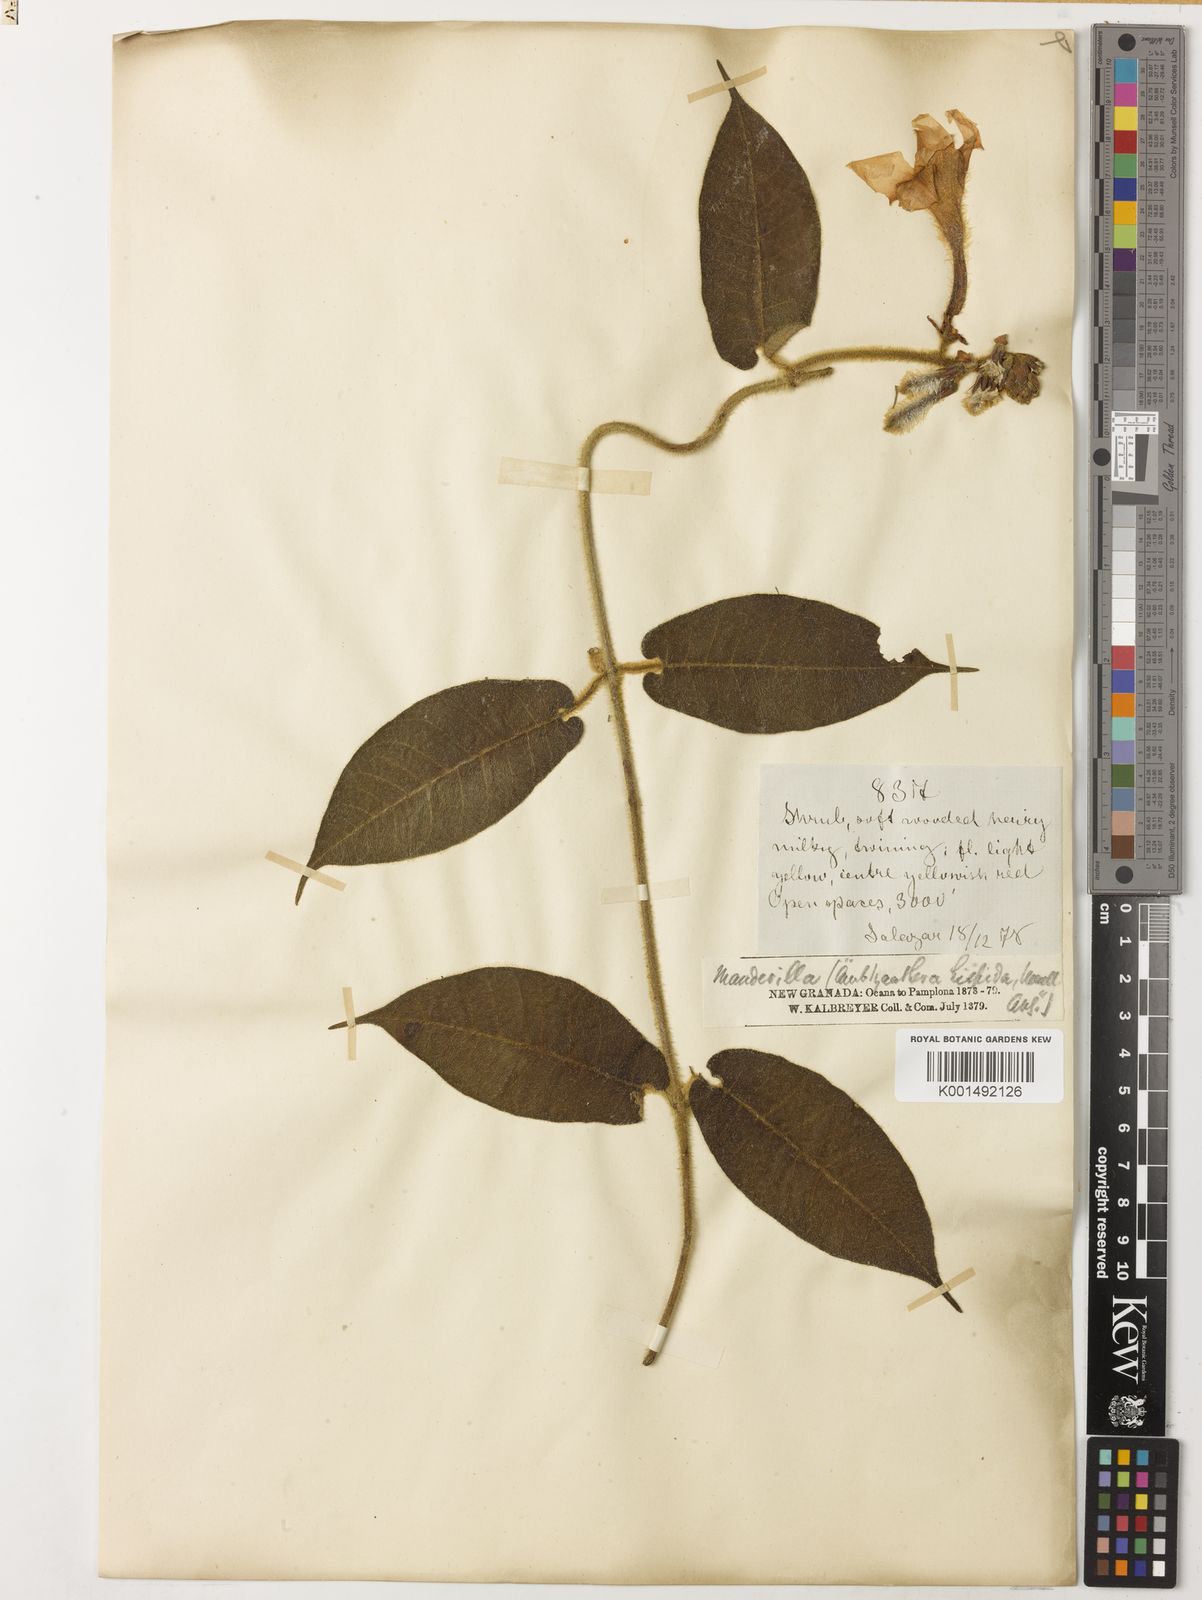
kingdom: Plantae
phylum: Tracheophyta
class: Magnoliopsida
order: Gentianales
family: Apocynaceae
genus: Mandevilla
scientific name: Mandevilla hirsuta
